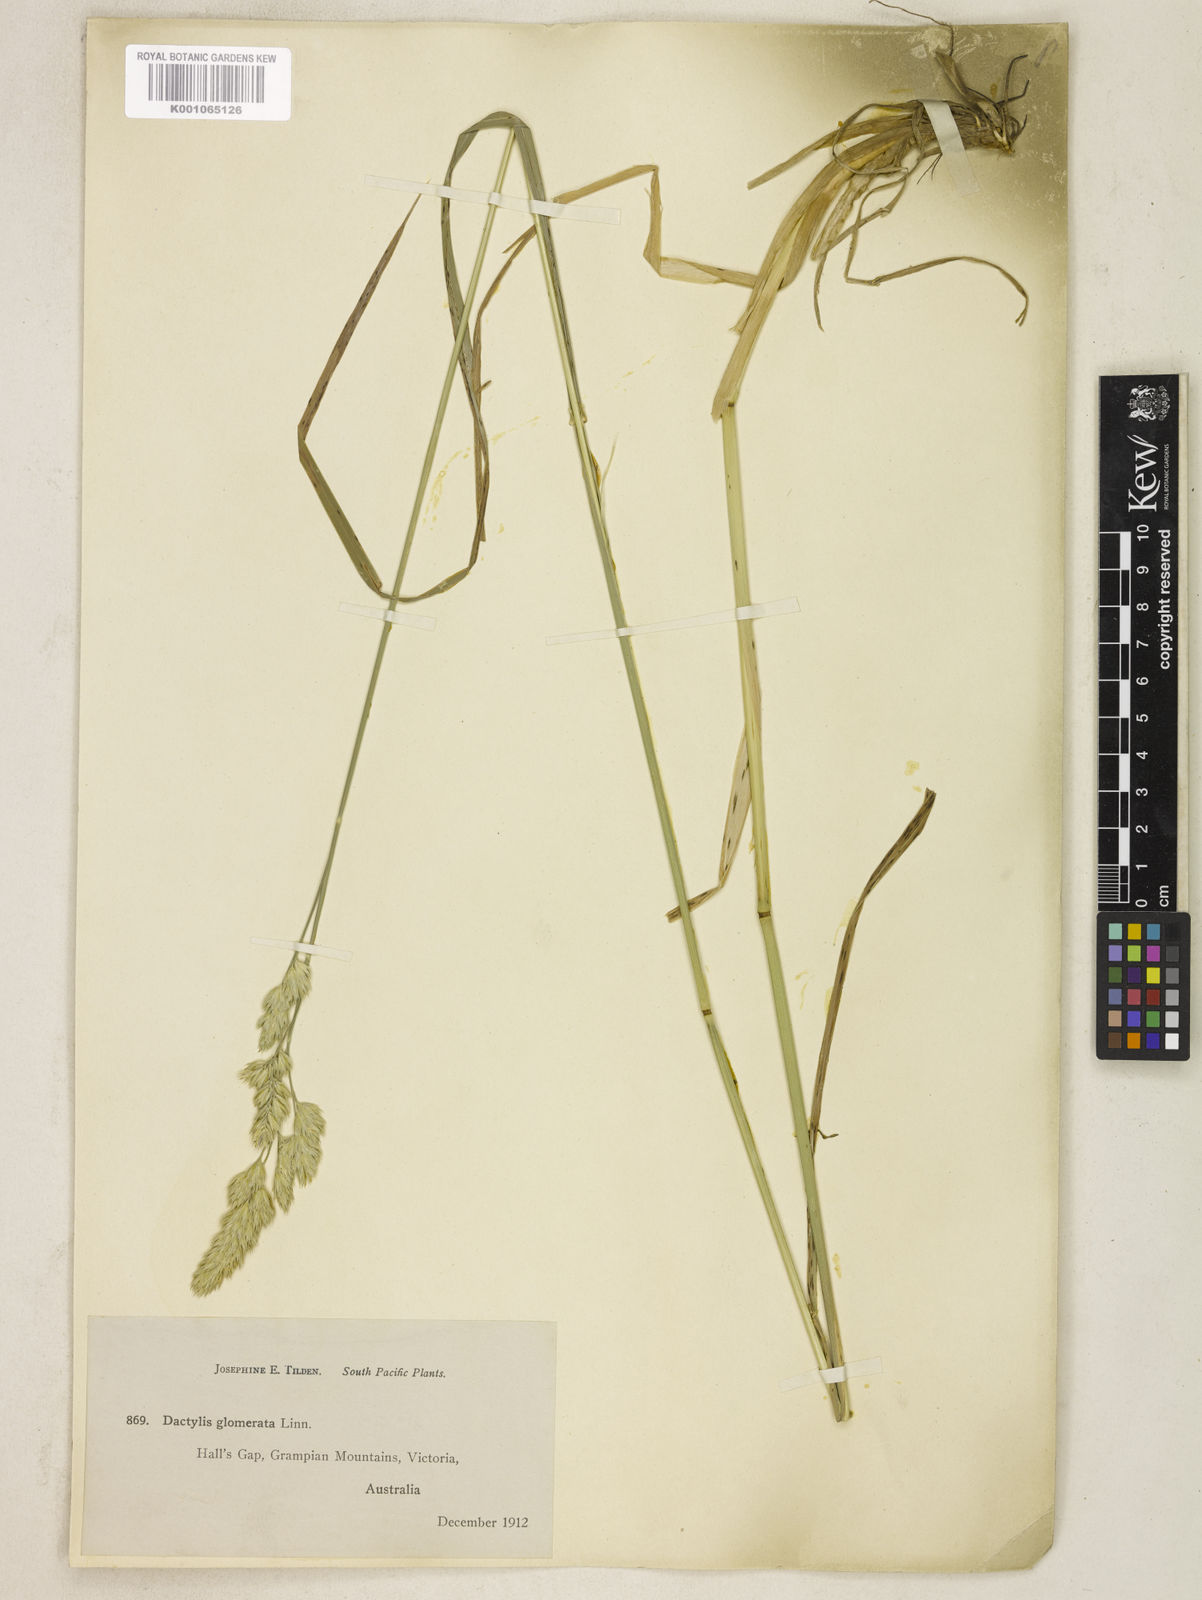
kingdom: Plantae
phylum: Tracheophyta
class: Liliopsida
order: Poales
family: Poaceae
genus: Dactylis
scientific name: Dactylis glomerata
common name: Orchardgrass
